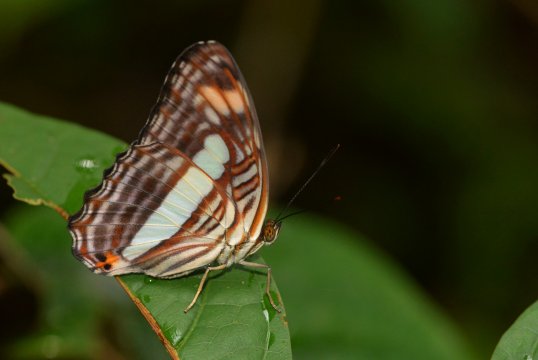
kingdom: Animalia
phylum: Arthropoda
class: Insecta
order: Lepidoptera
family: Nymphalidae
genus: Limenitis
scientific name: Limenitis Adelpha iphiclus
